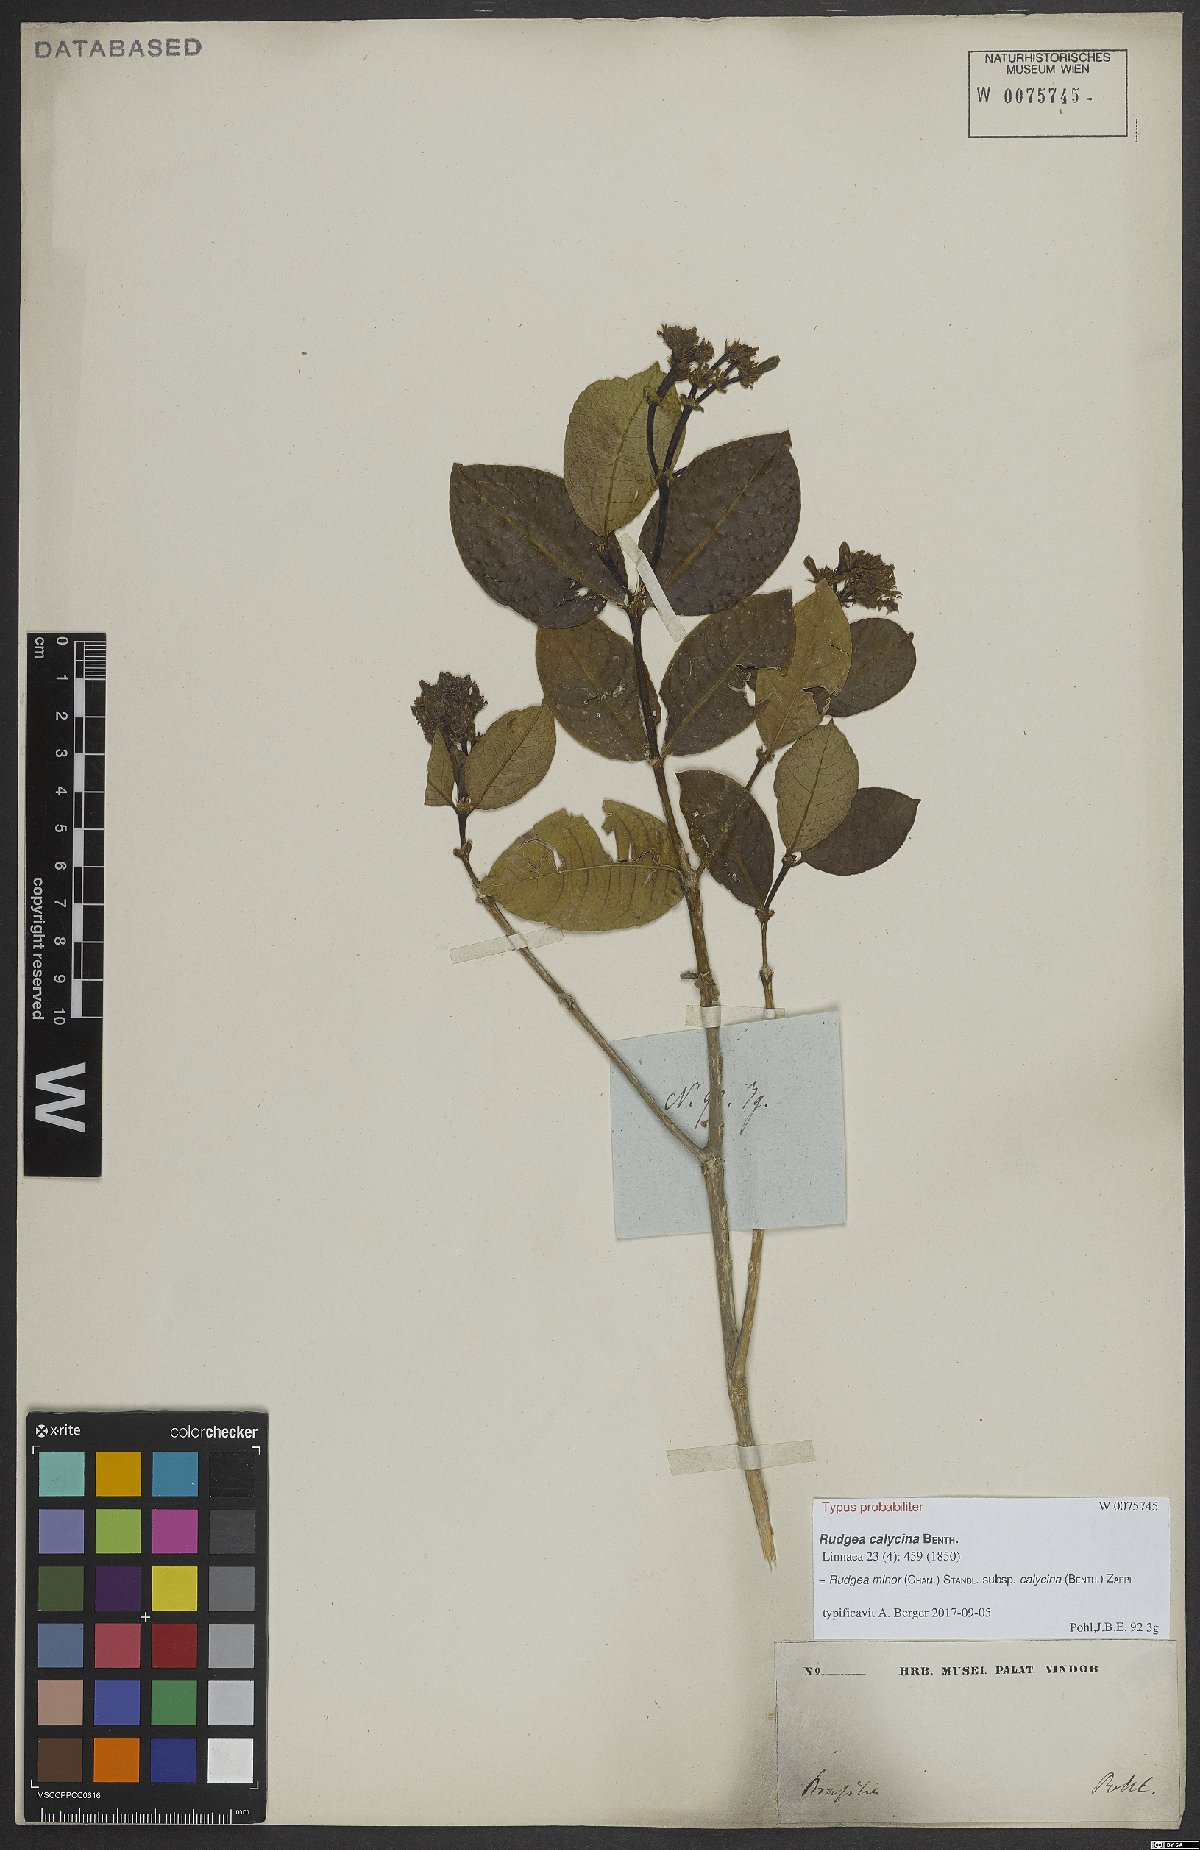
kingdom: Plantae
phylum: Tracheophyta
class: Magnoliopsida
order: Gentianales
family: Rubiaceae
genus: Rudgea
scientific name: Rudgea minor
